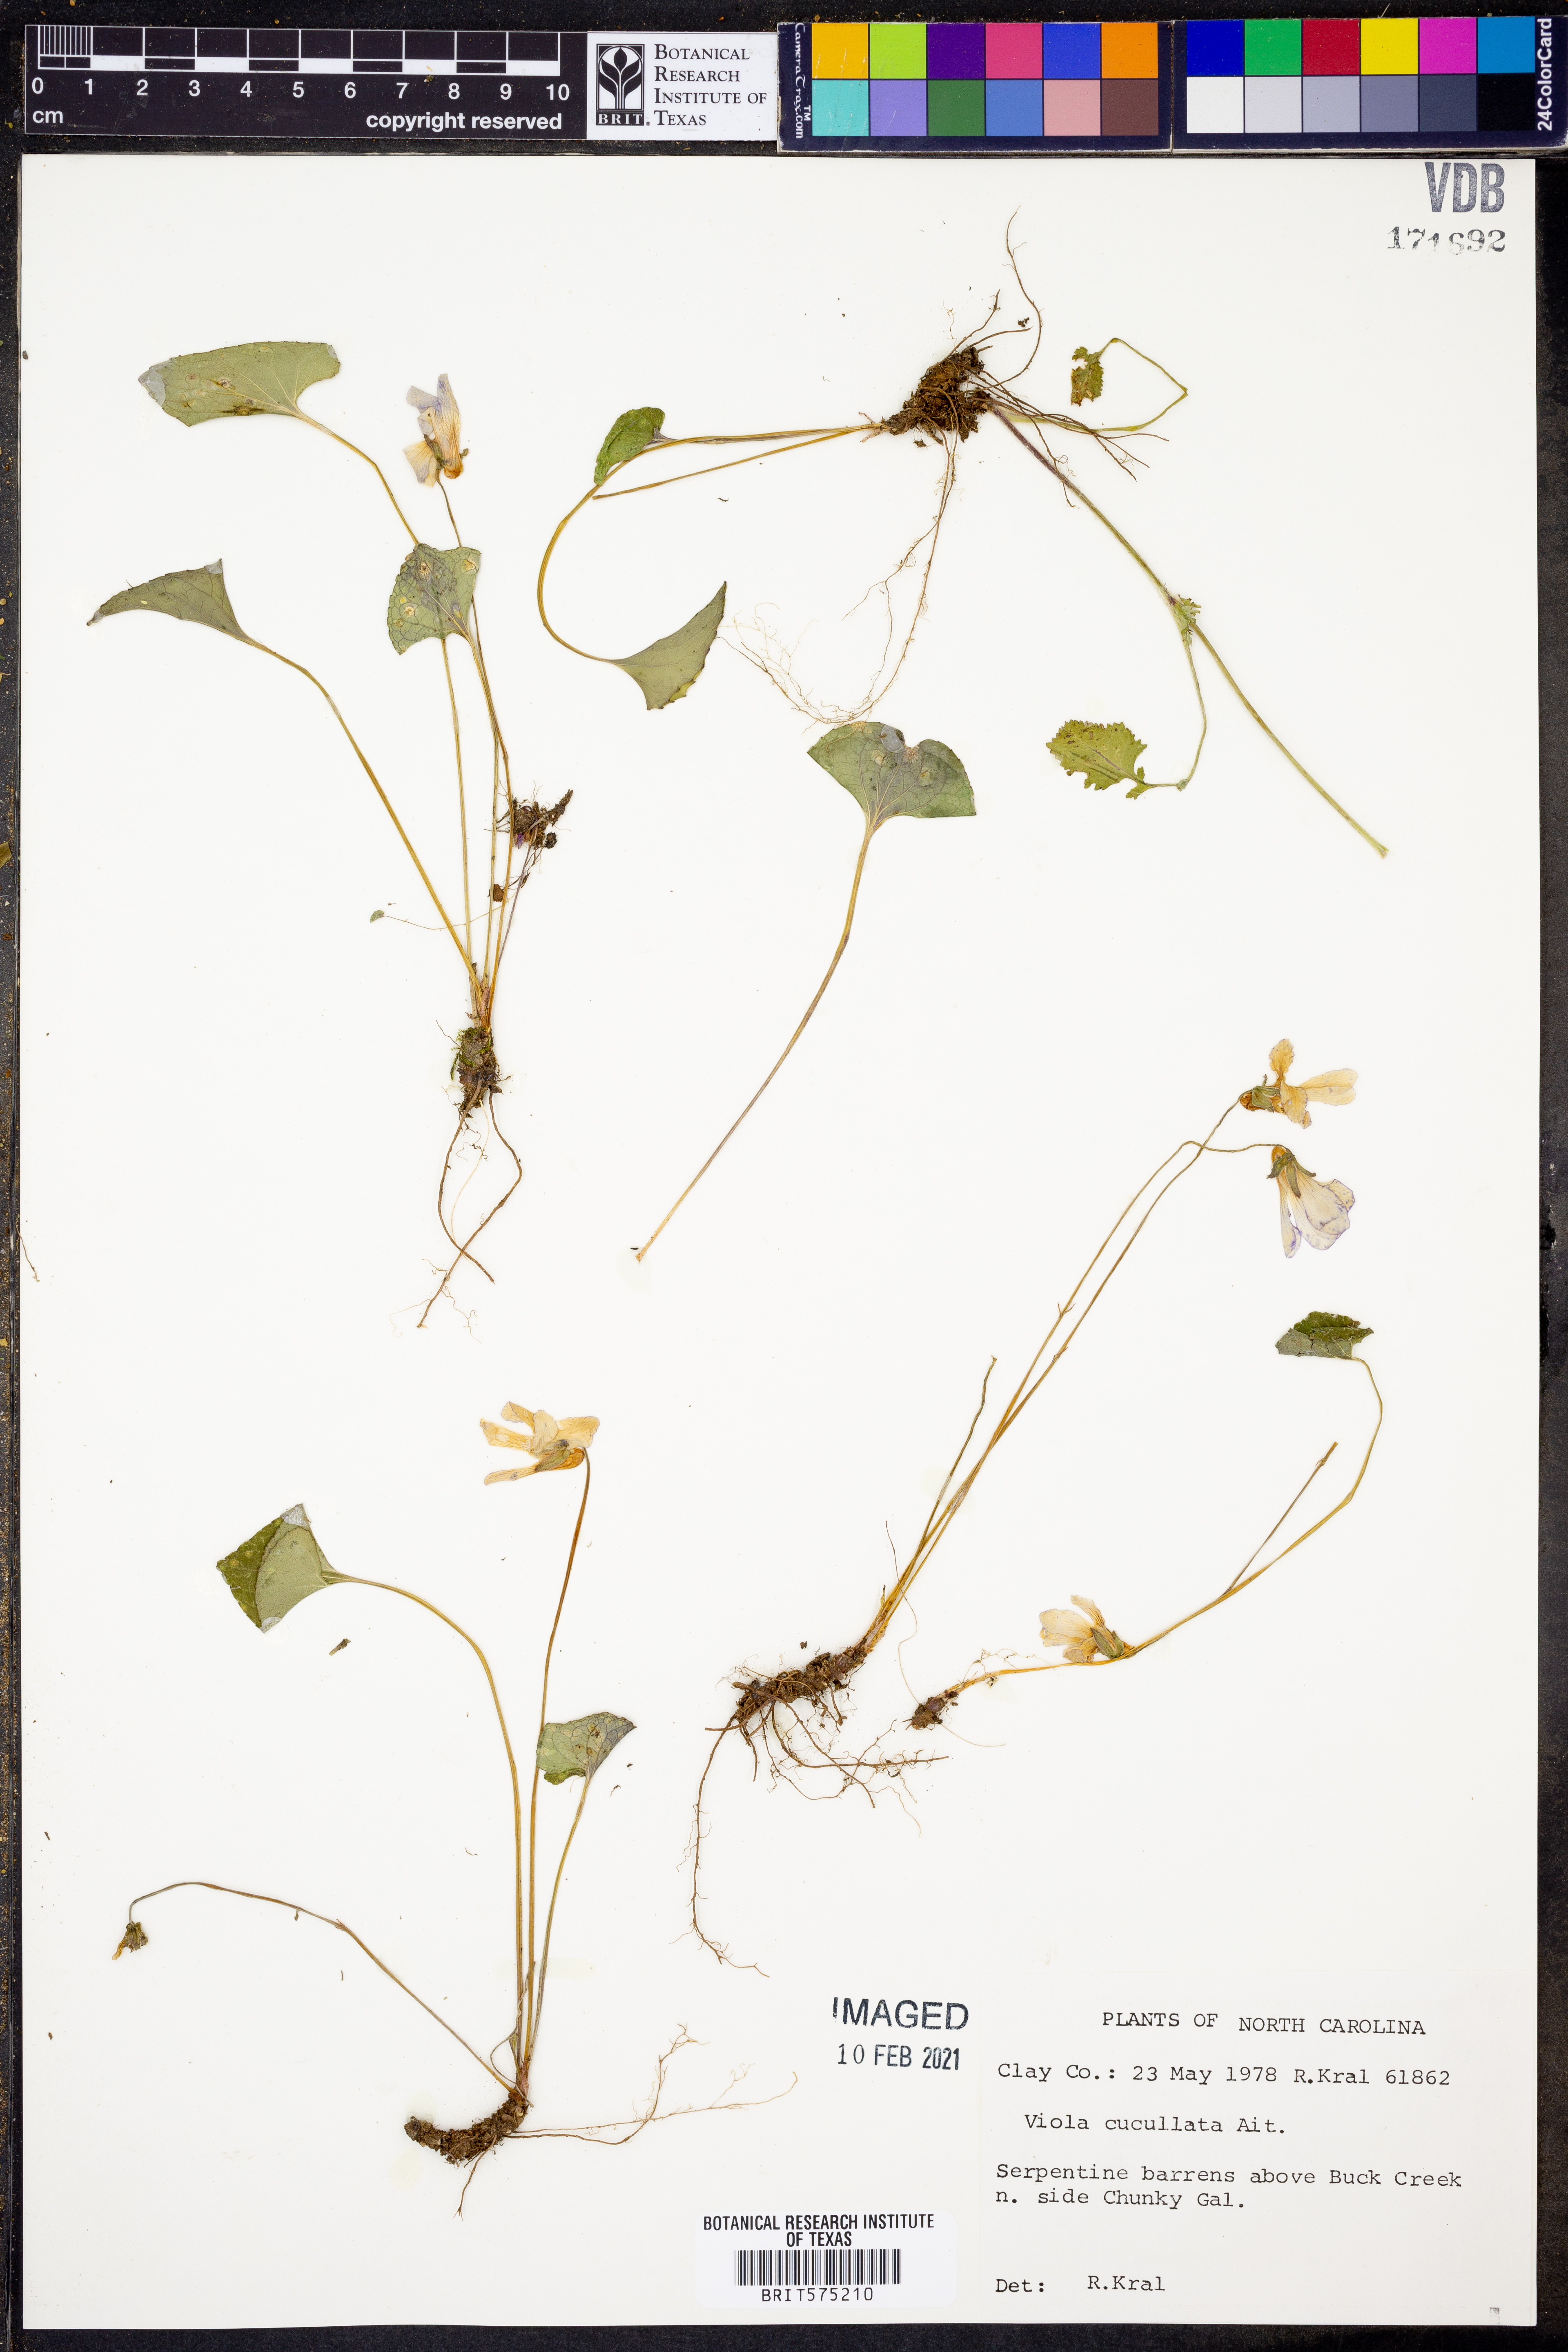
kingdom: Plantae
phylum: Tracheophyta
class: Magnoliopsida
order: Malpighiales
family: Violaceae
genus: Viola
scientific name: Viola cucullata
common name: Marsh blue violet
